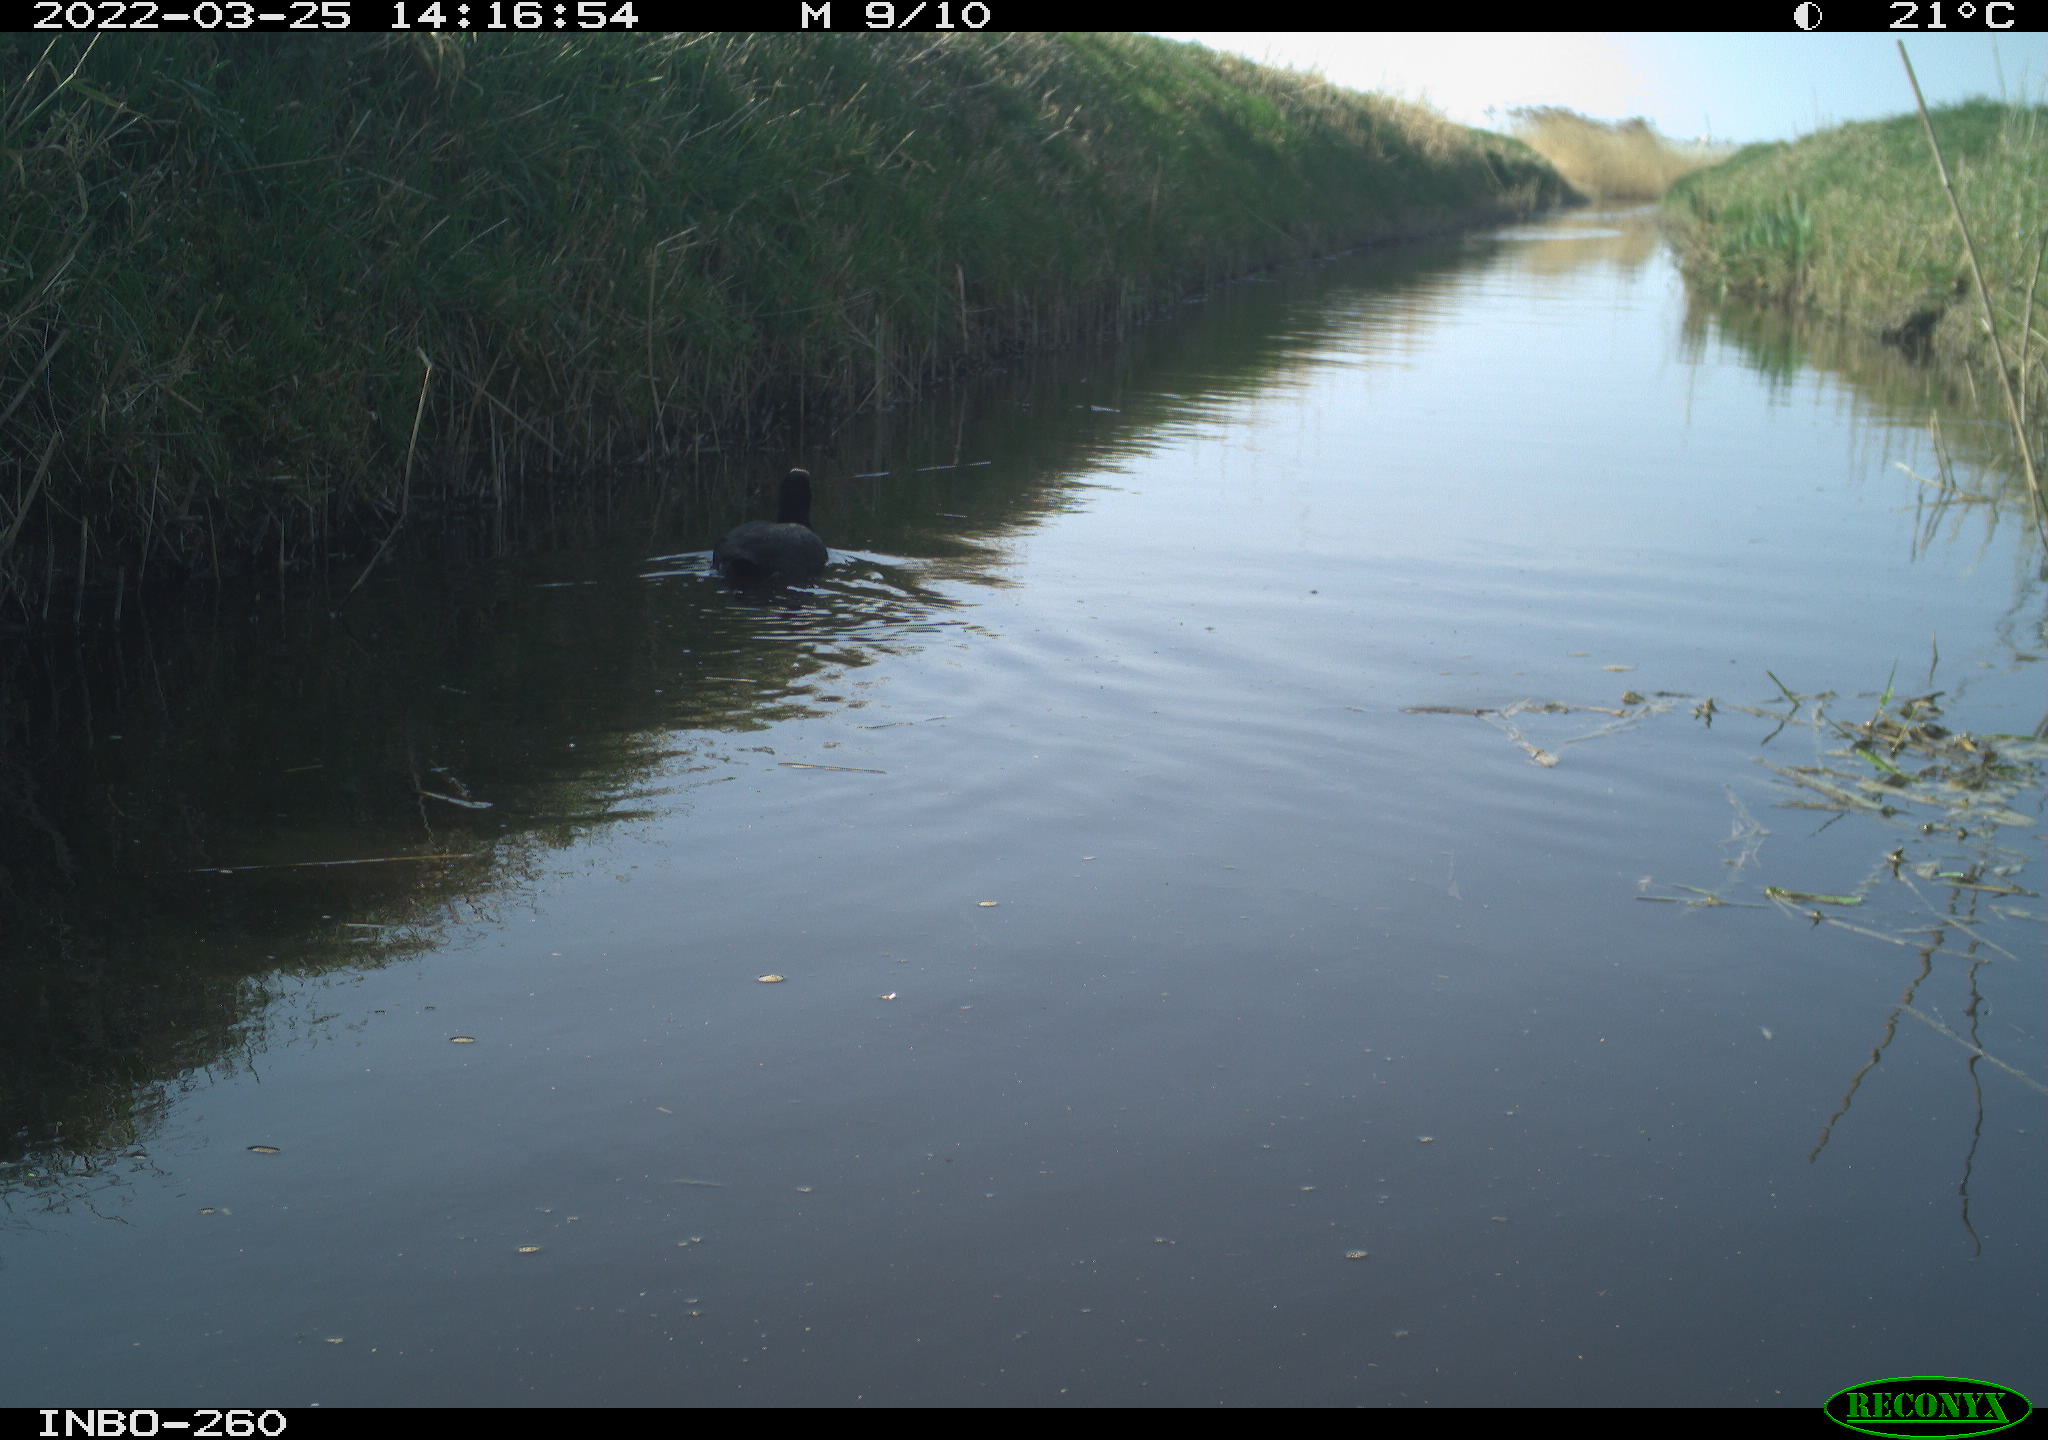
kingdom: Animalia
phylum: Chordata
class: Aves
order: Gruiformes
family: Rallidae
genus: Fulica
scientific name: Fulica atra
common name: Eurasian coot
